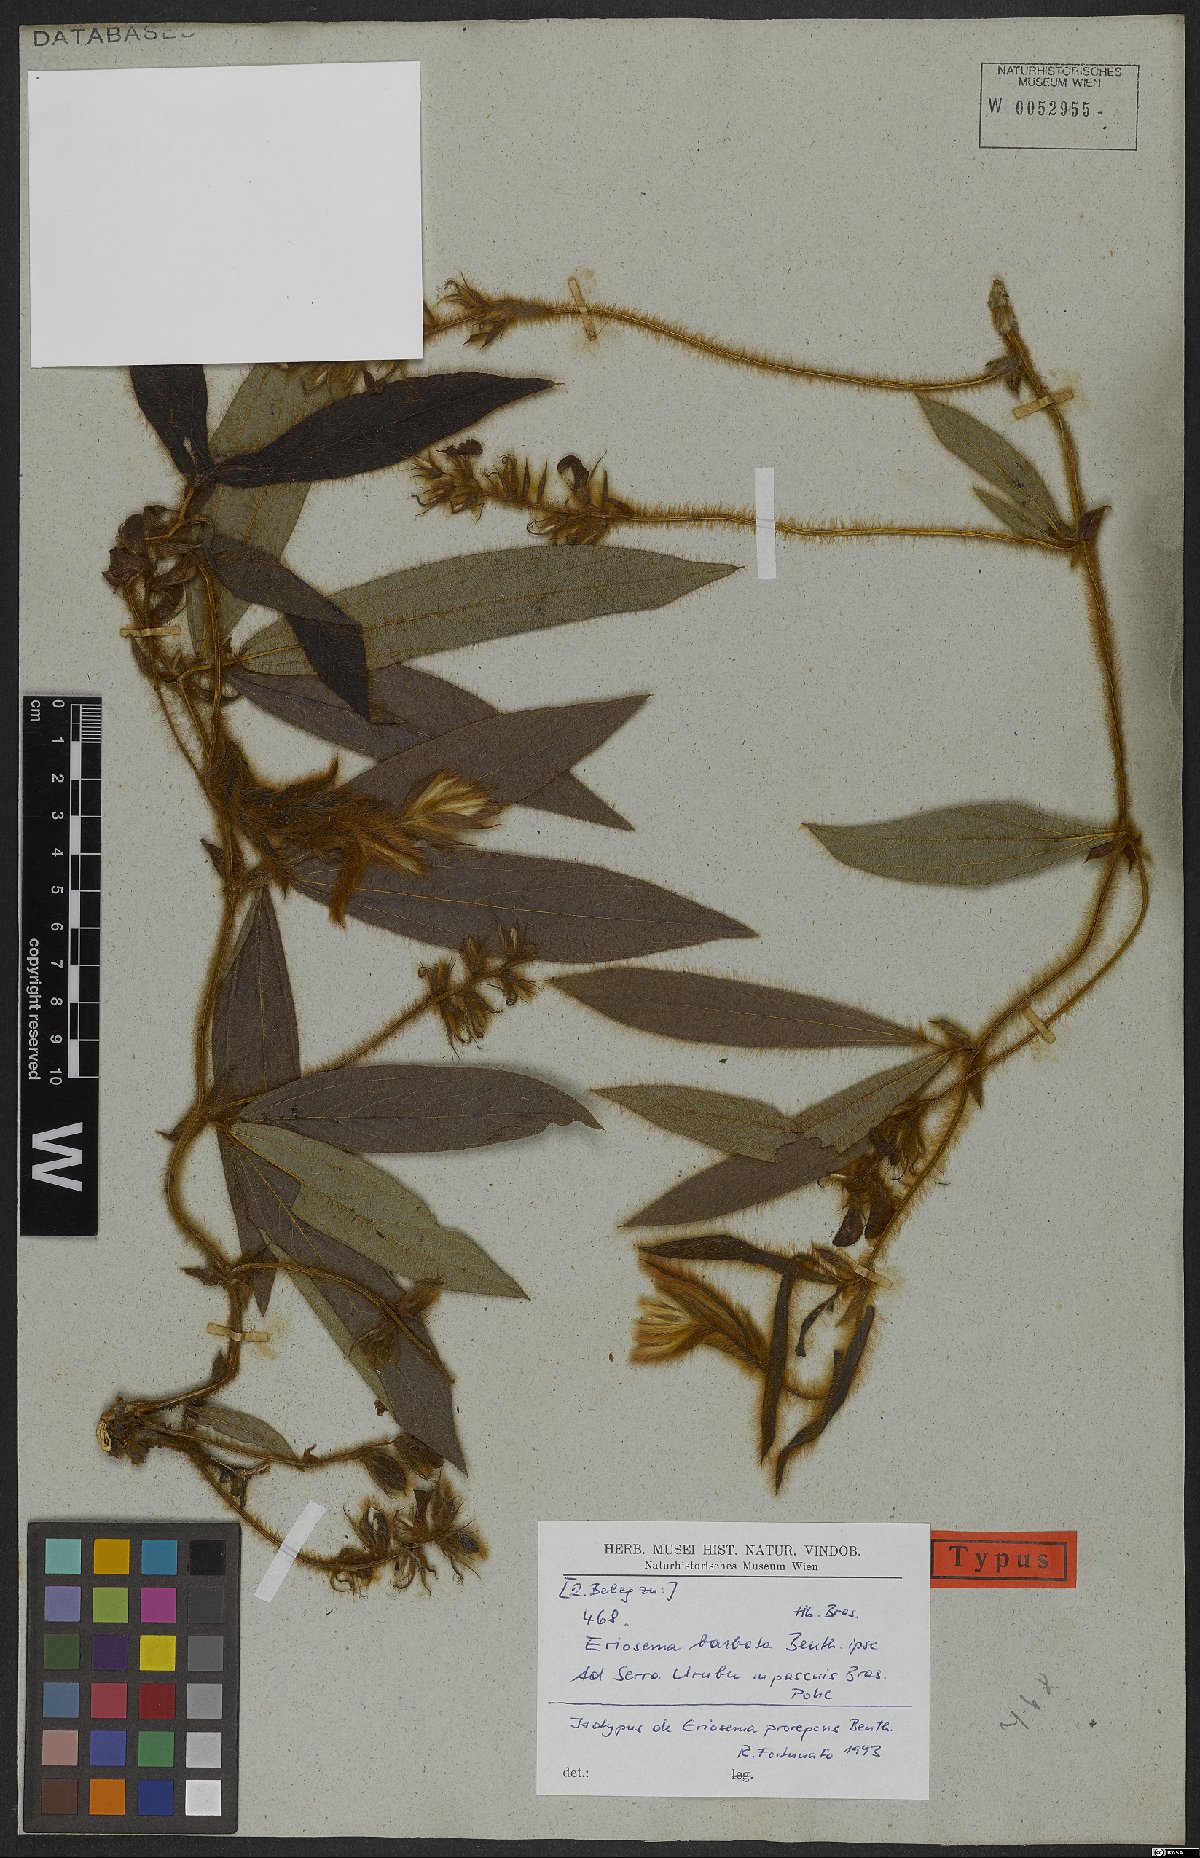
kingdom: Plantae
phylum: Tracheophyta
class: Magnoliopsida
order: Fabales
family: Fabaceae
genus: Eriosema
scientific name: Eriosema prorepens
